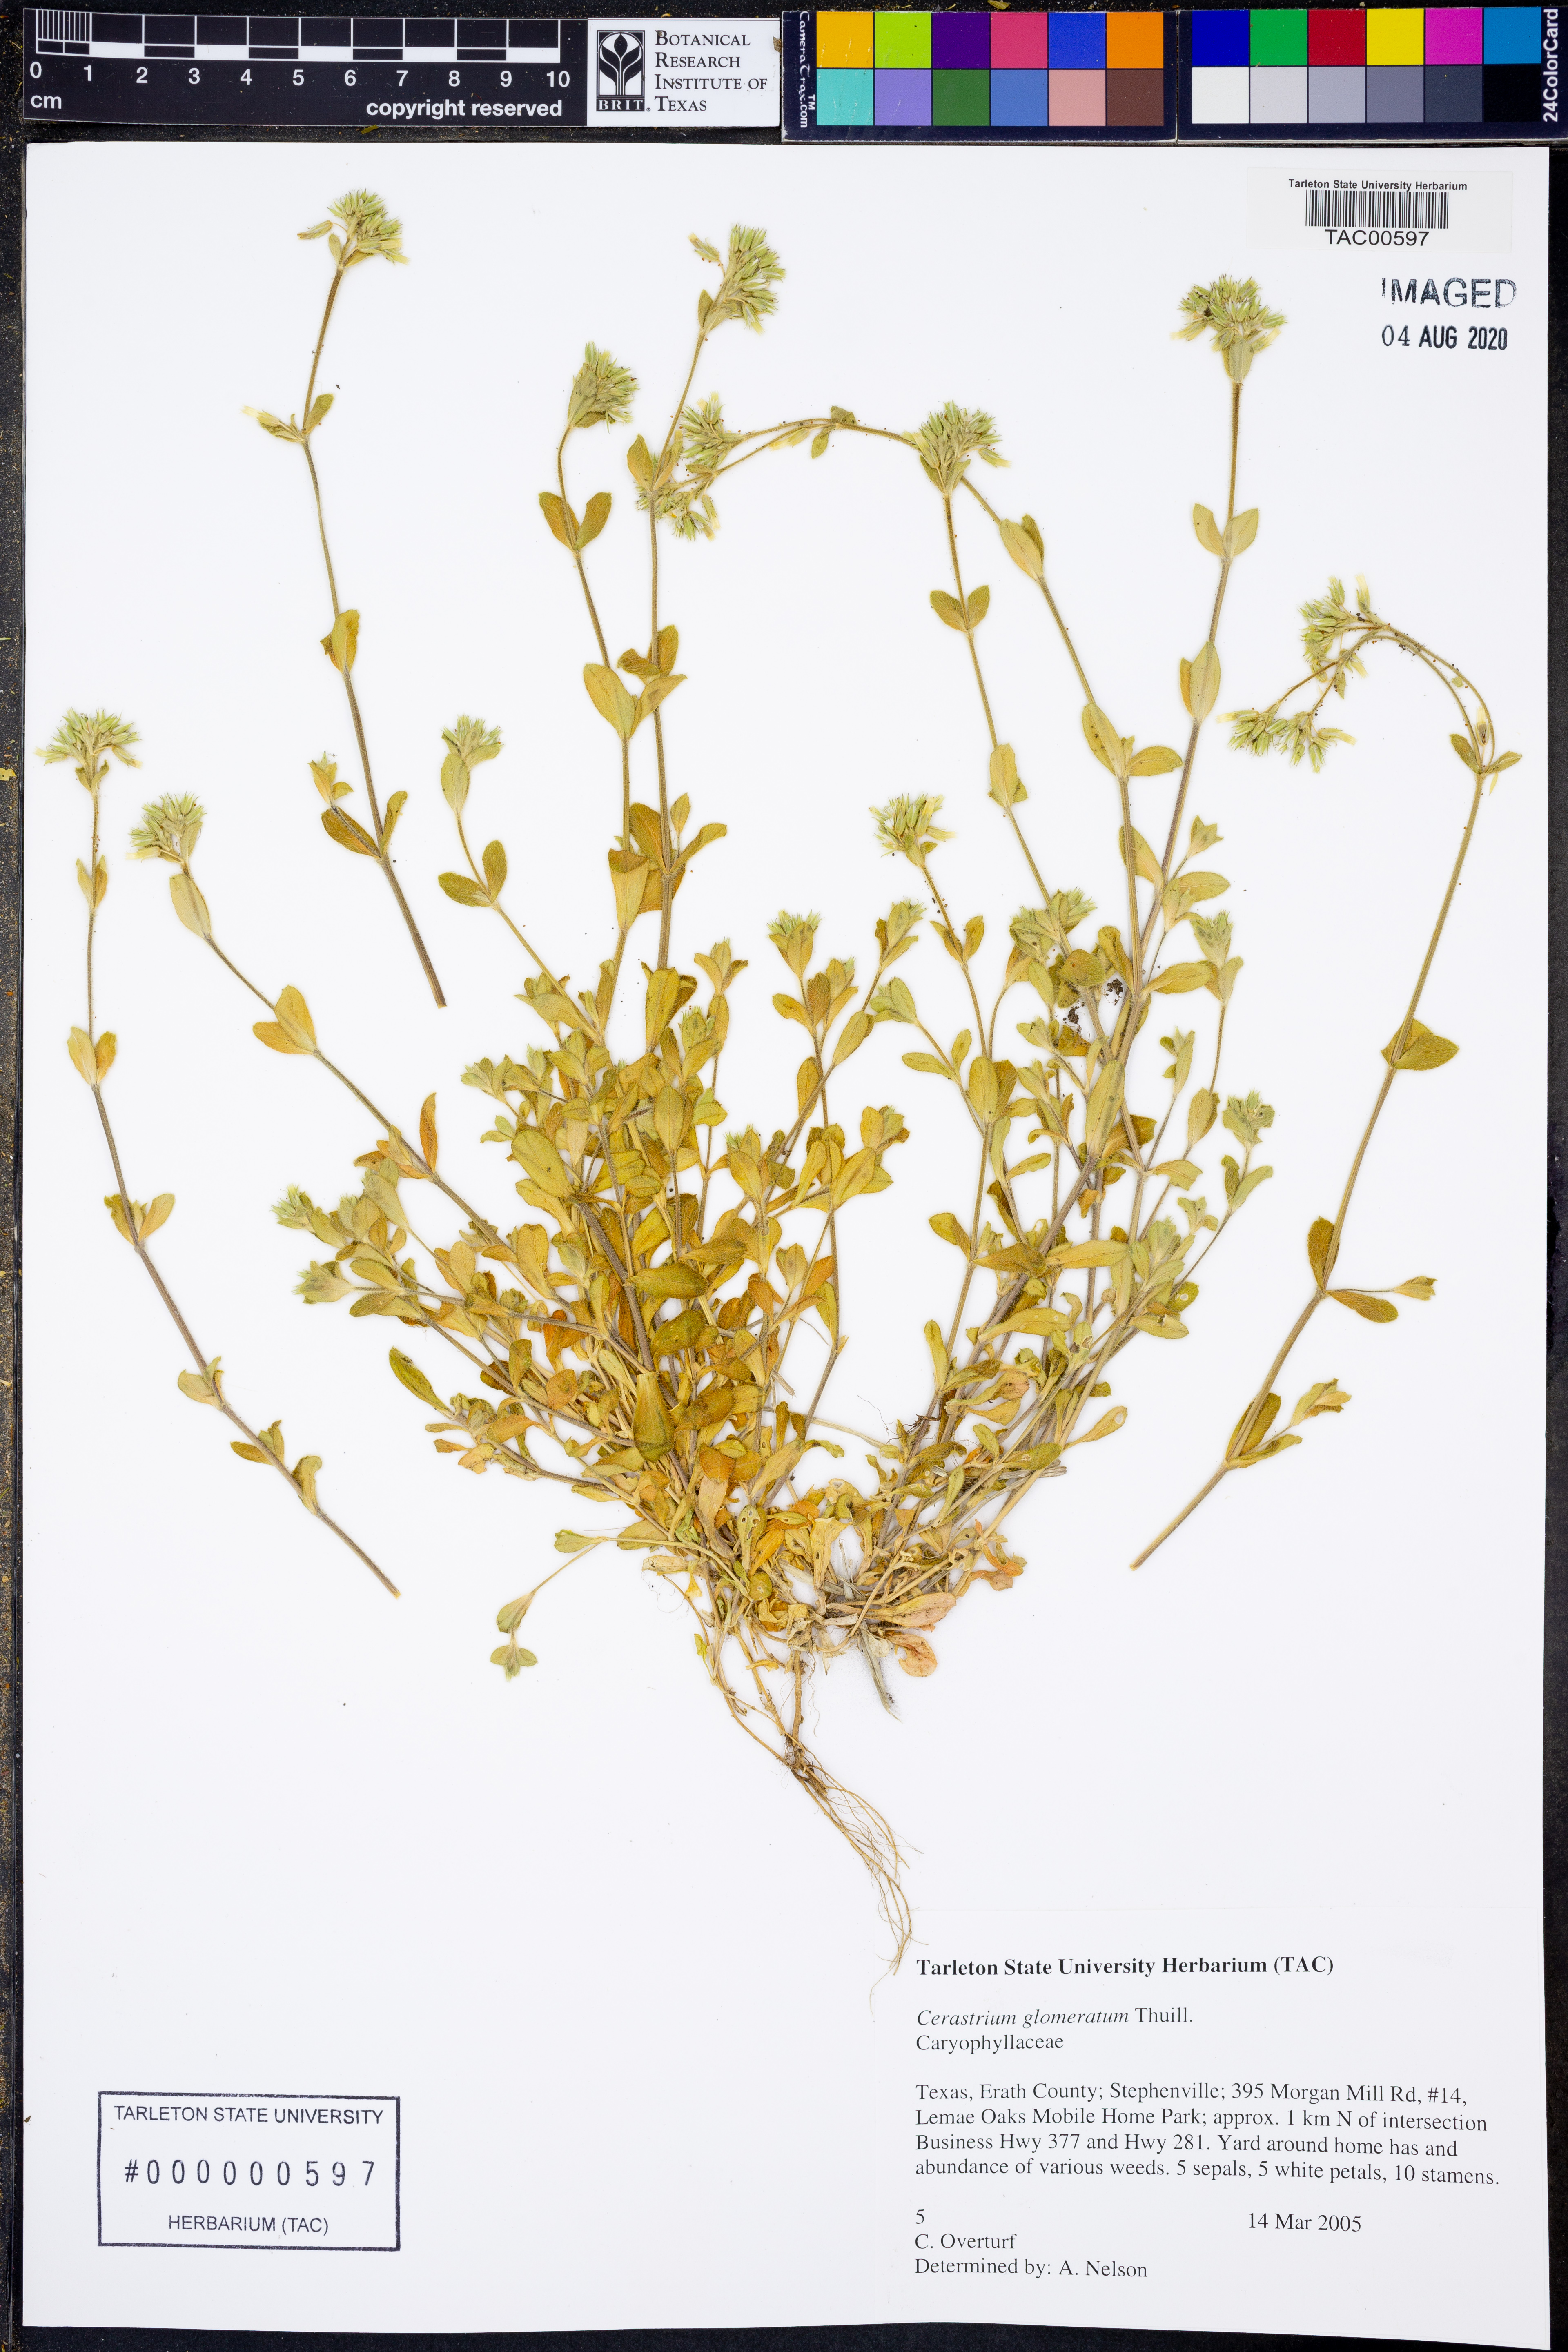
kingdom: Plantae
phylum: Tracheophyta
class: Magnoliopsida
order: Caryophyllales
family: Caryophyllaceae
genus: Cerastium
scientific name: Cerastium glomeratum
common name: Sticky chickweed
